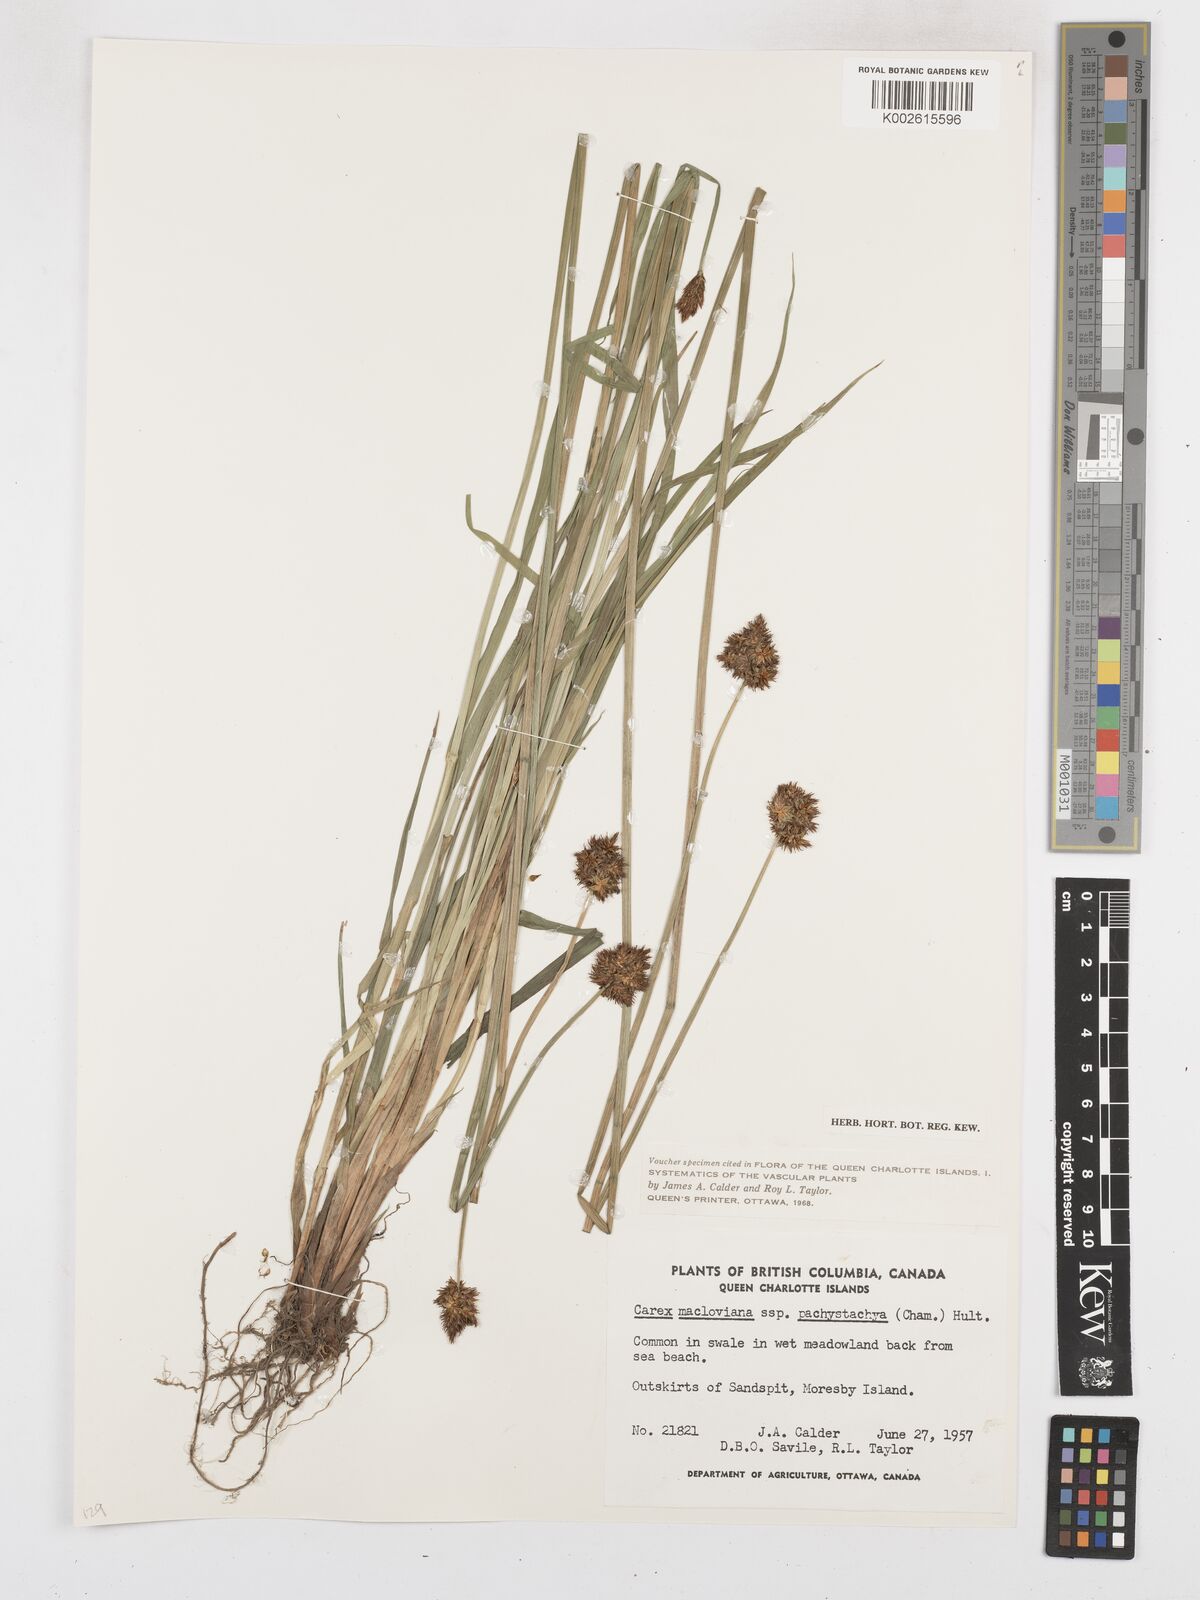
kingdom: Plantae
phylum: Tracheophyta
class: Liliopsida
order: Poales
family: Cyperaceae
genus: Carex
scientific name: Carex pachystachya
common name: Chamisso's sedge
